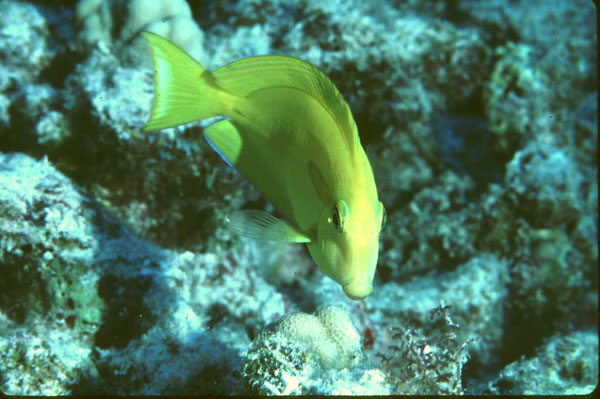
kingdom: Animalia
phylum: Chordata
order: Perciformes
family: Acanthuridae
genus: Acanthurus
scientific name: Acanthurus olivaceus
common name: Gendarme fish
